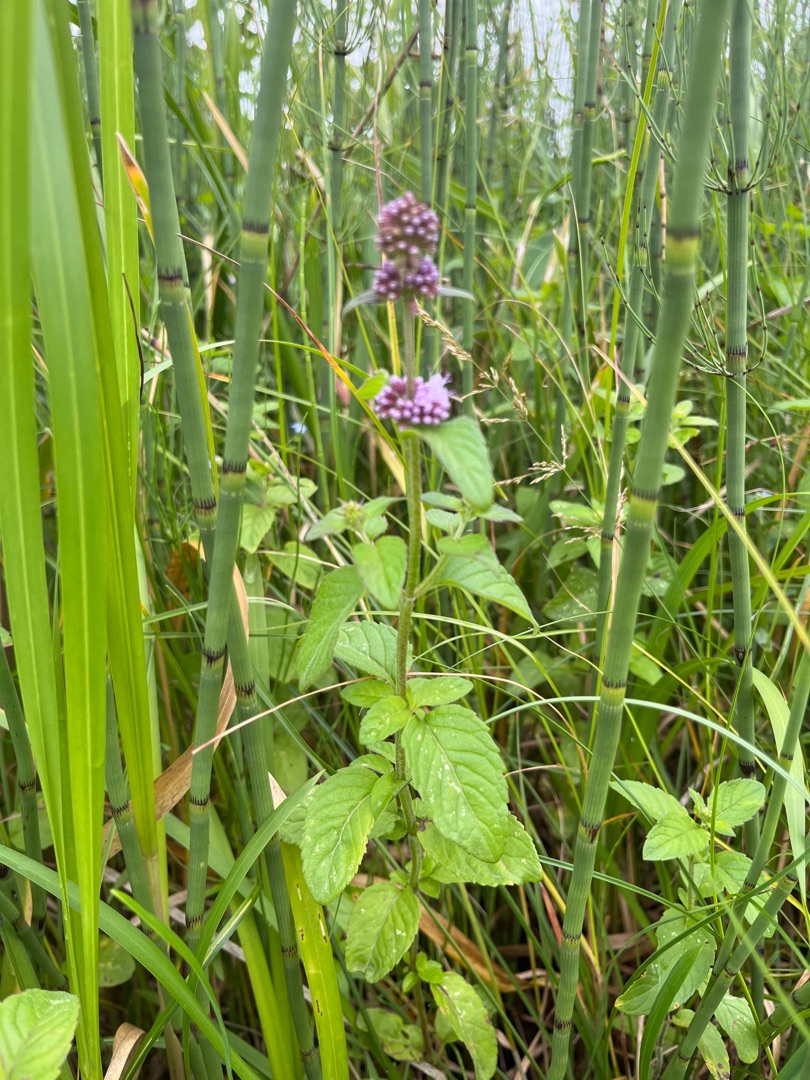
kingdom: Plantae
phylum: Tracheophyta
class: Magnoliopsida
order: Lamiales
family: Lamiaceae
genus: Mentha
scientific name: Mentha aquatica
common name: Vand-mynte
